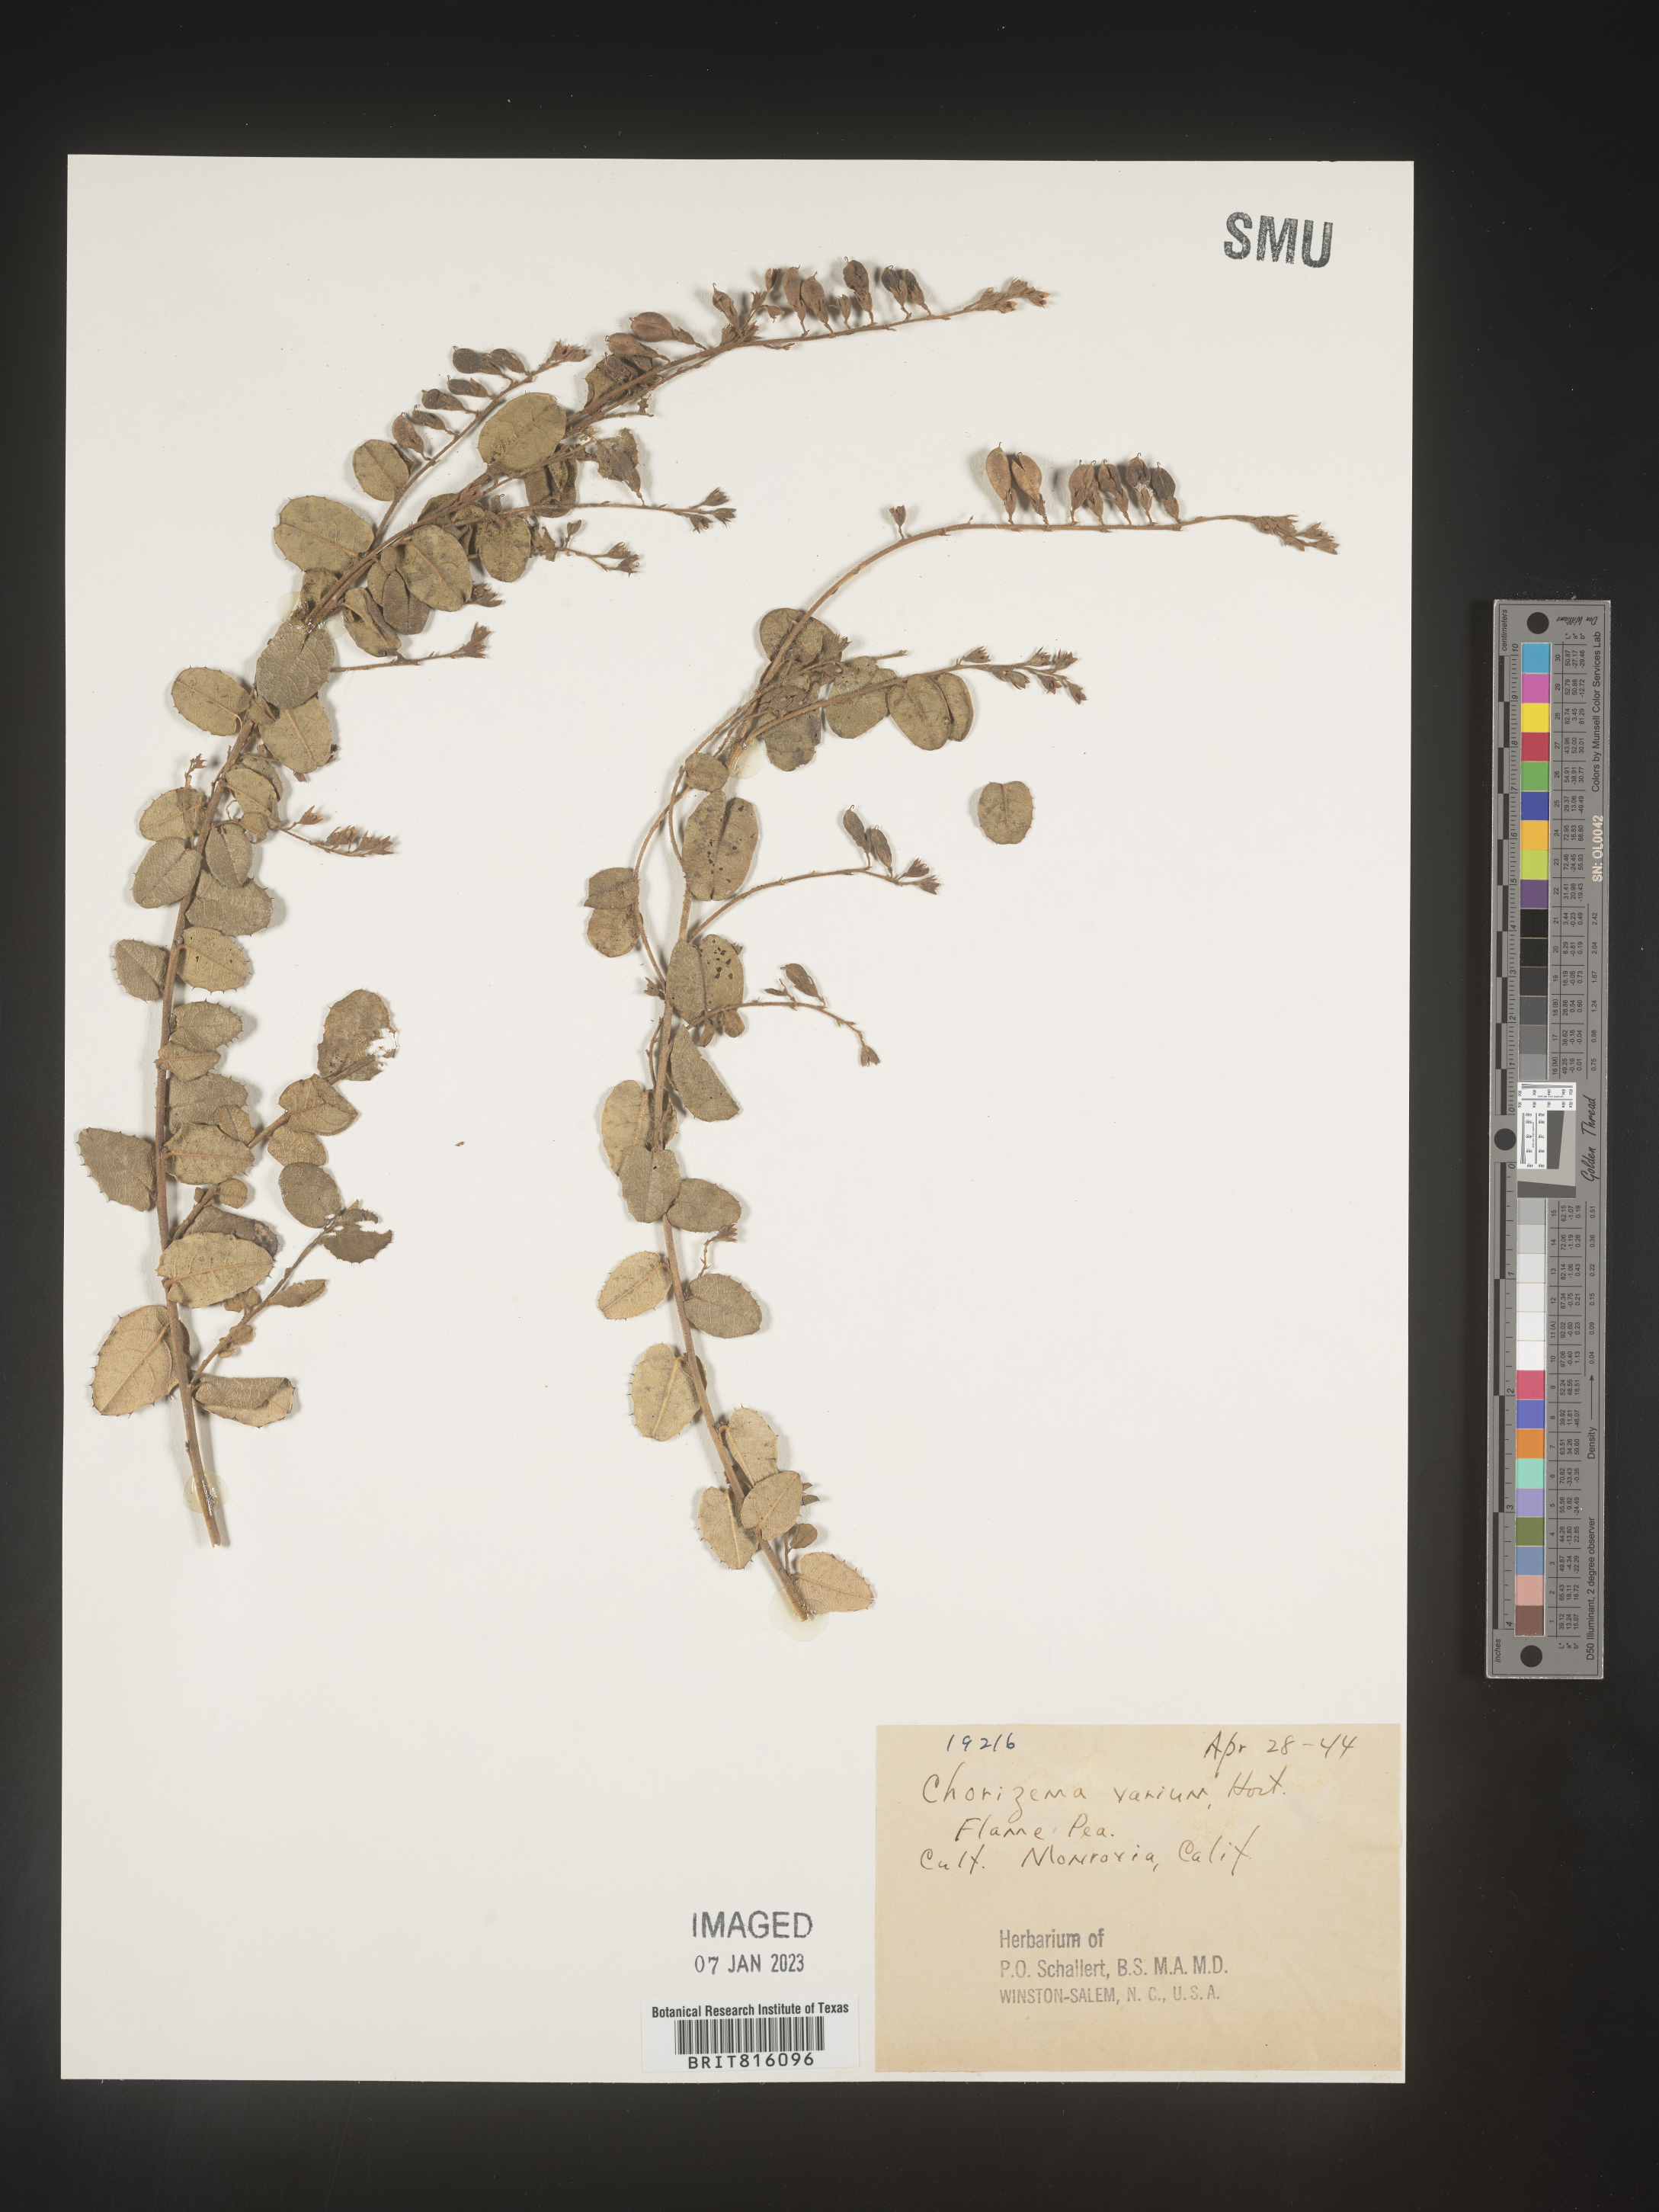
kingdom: Plantae
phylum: Tracheophyta
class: Magnoliopsida
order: Fabales
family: Fabaceae
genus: Chorizema
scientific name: Chorizema
